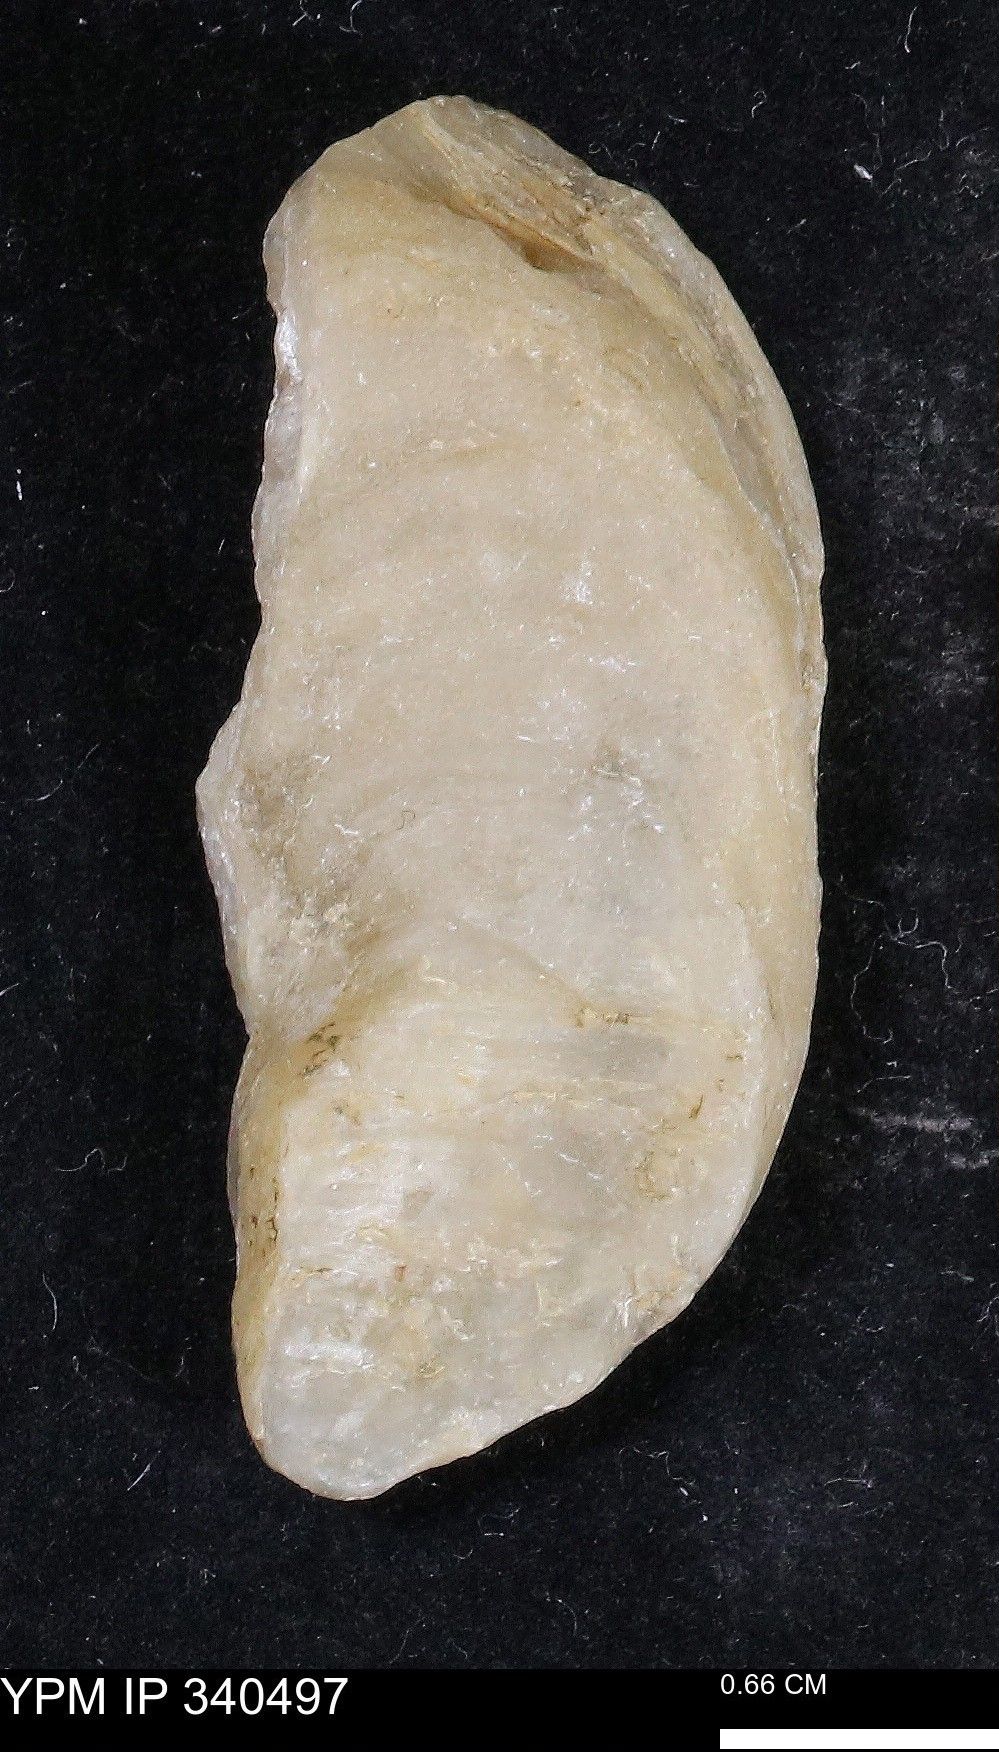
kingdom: Animalia
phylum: Mollusca
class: Bivalvia
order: Ostreida
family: Ostreidae
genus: Nanostrea
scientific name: Nanostrea pinnicola
